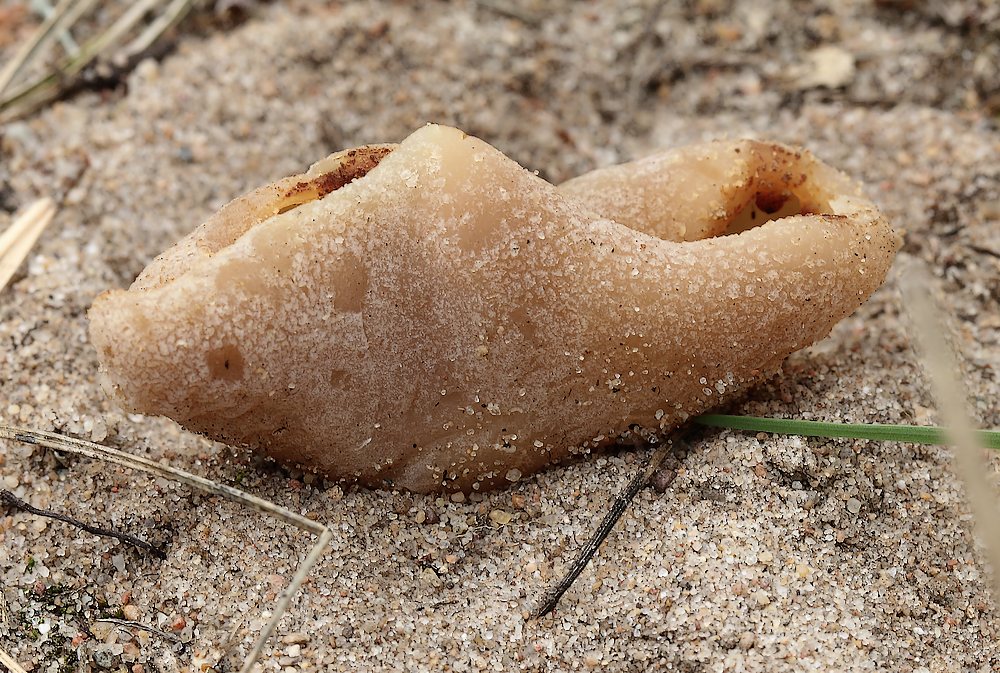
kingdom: Fungi
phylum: Ascomycota
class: Pezizomycetes
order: Pezizales
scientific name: Pezizales
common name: bægersvampordenen
